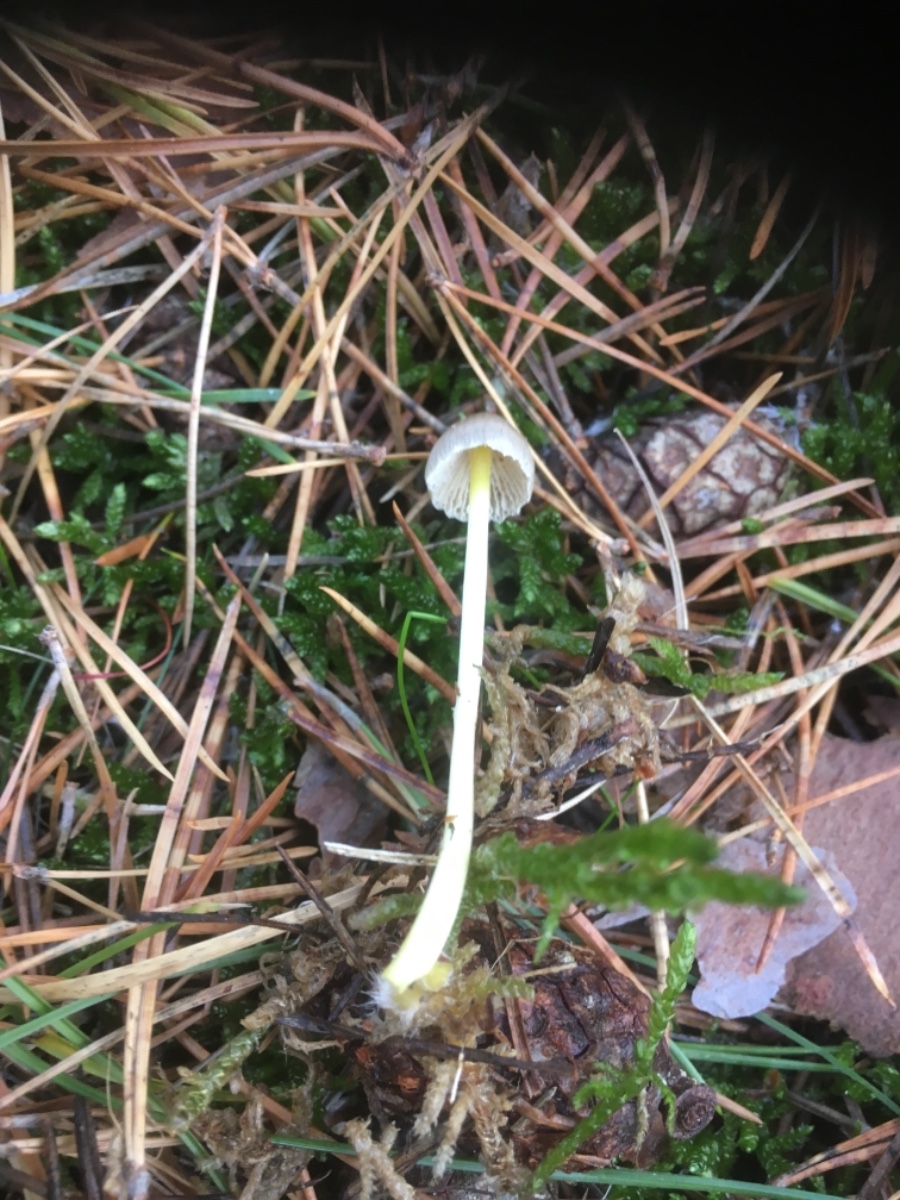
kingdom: Fungi
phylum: Basidiomycota
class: Agaricomycetes
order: Agaricales
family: Mycenaceae
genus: Mycena
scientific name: Mycena epipterygia
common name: gulstokket huesvamp
